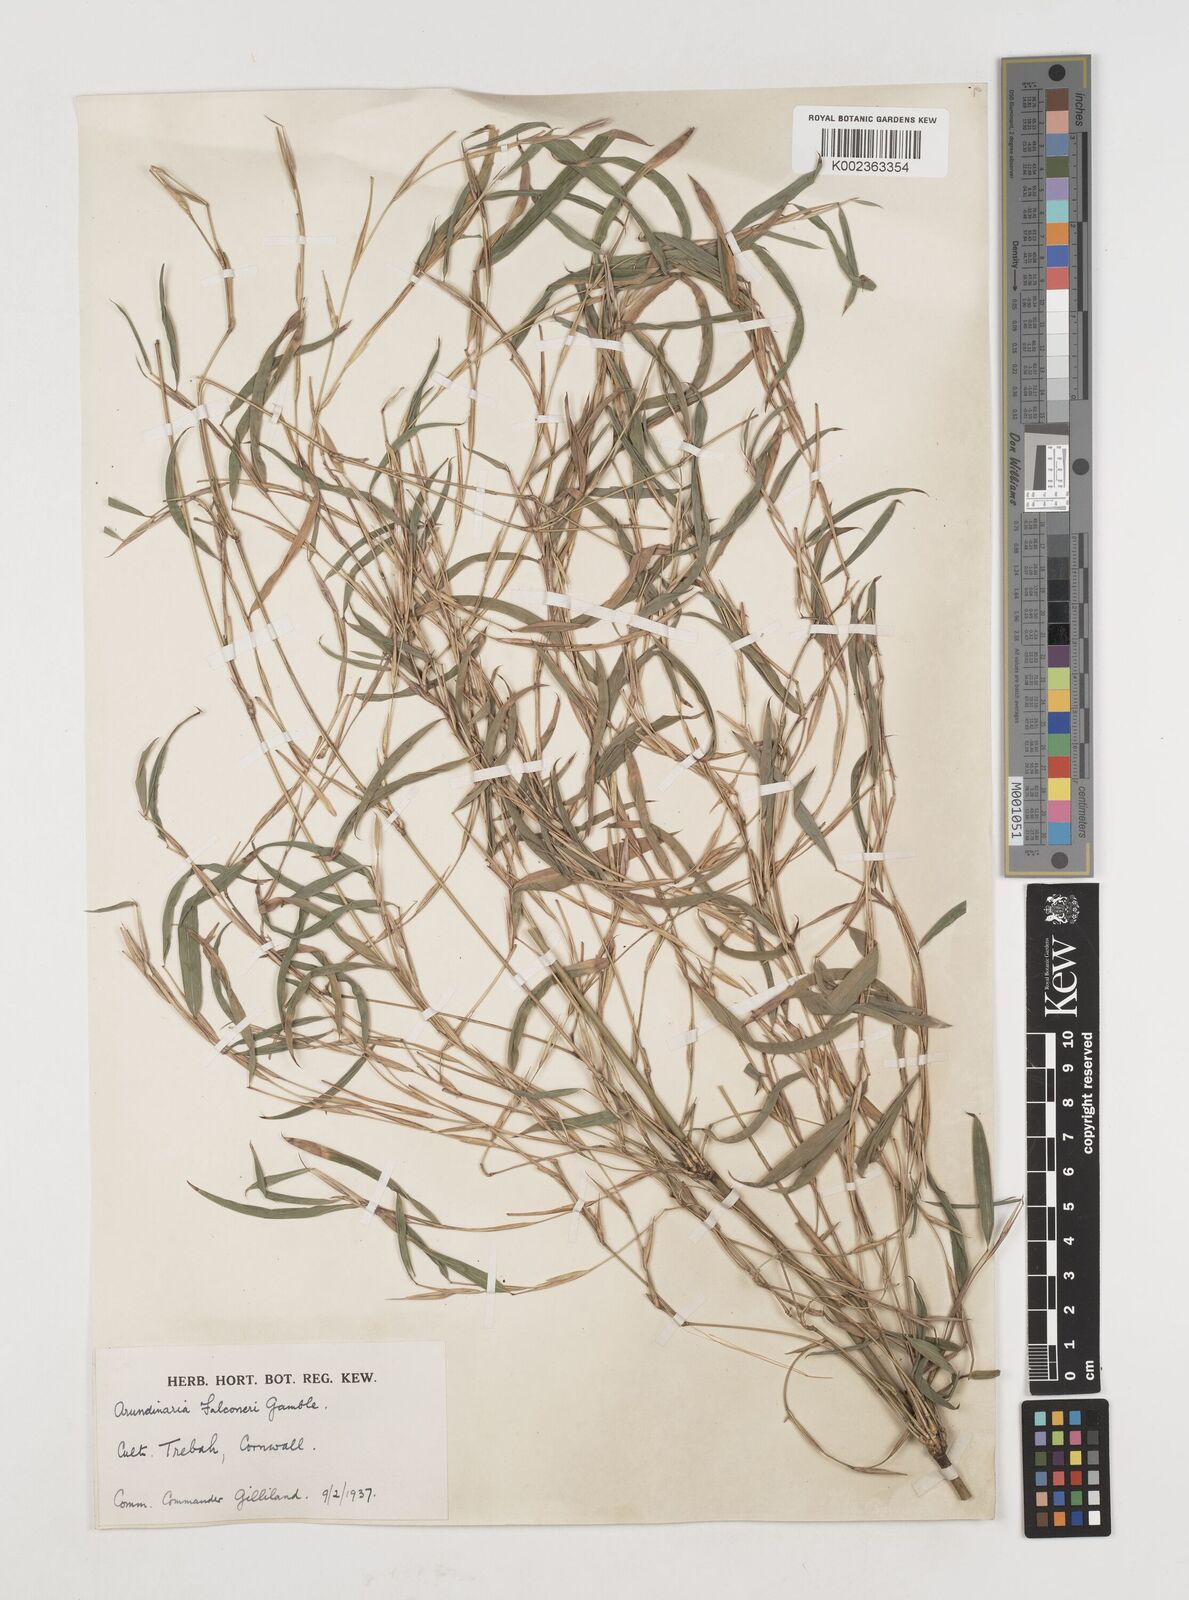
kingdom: Plantae
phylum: Tracheophyta
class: Liliopsida
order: Poales
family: Poaceae
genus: Himalayacalamus
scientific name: Himalayacalamus falconeri
